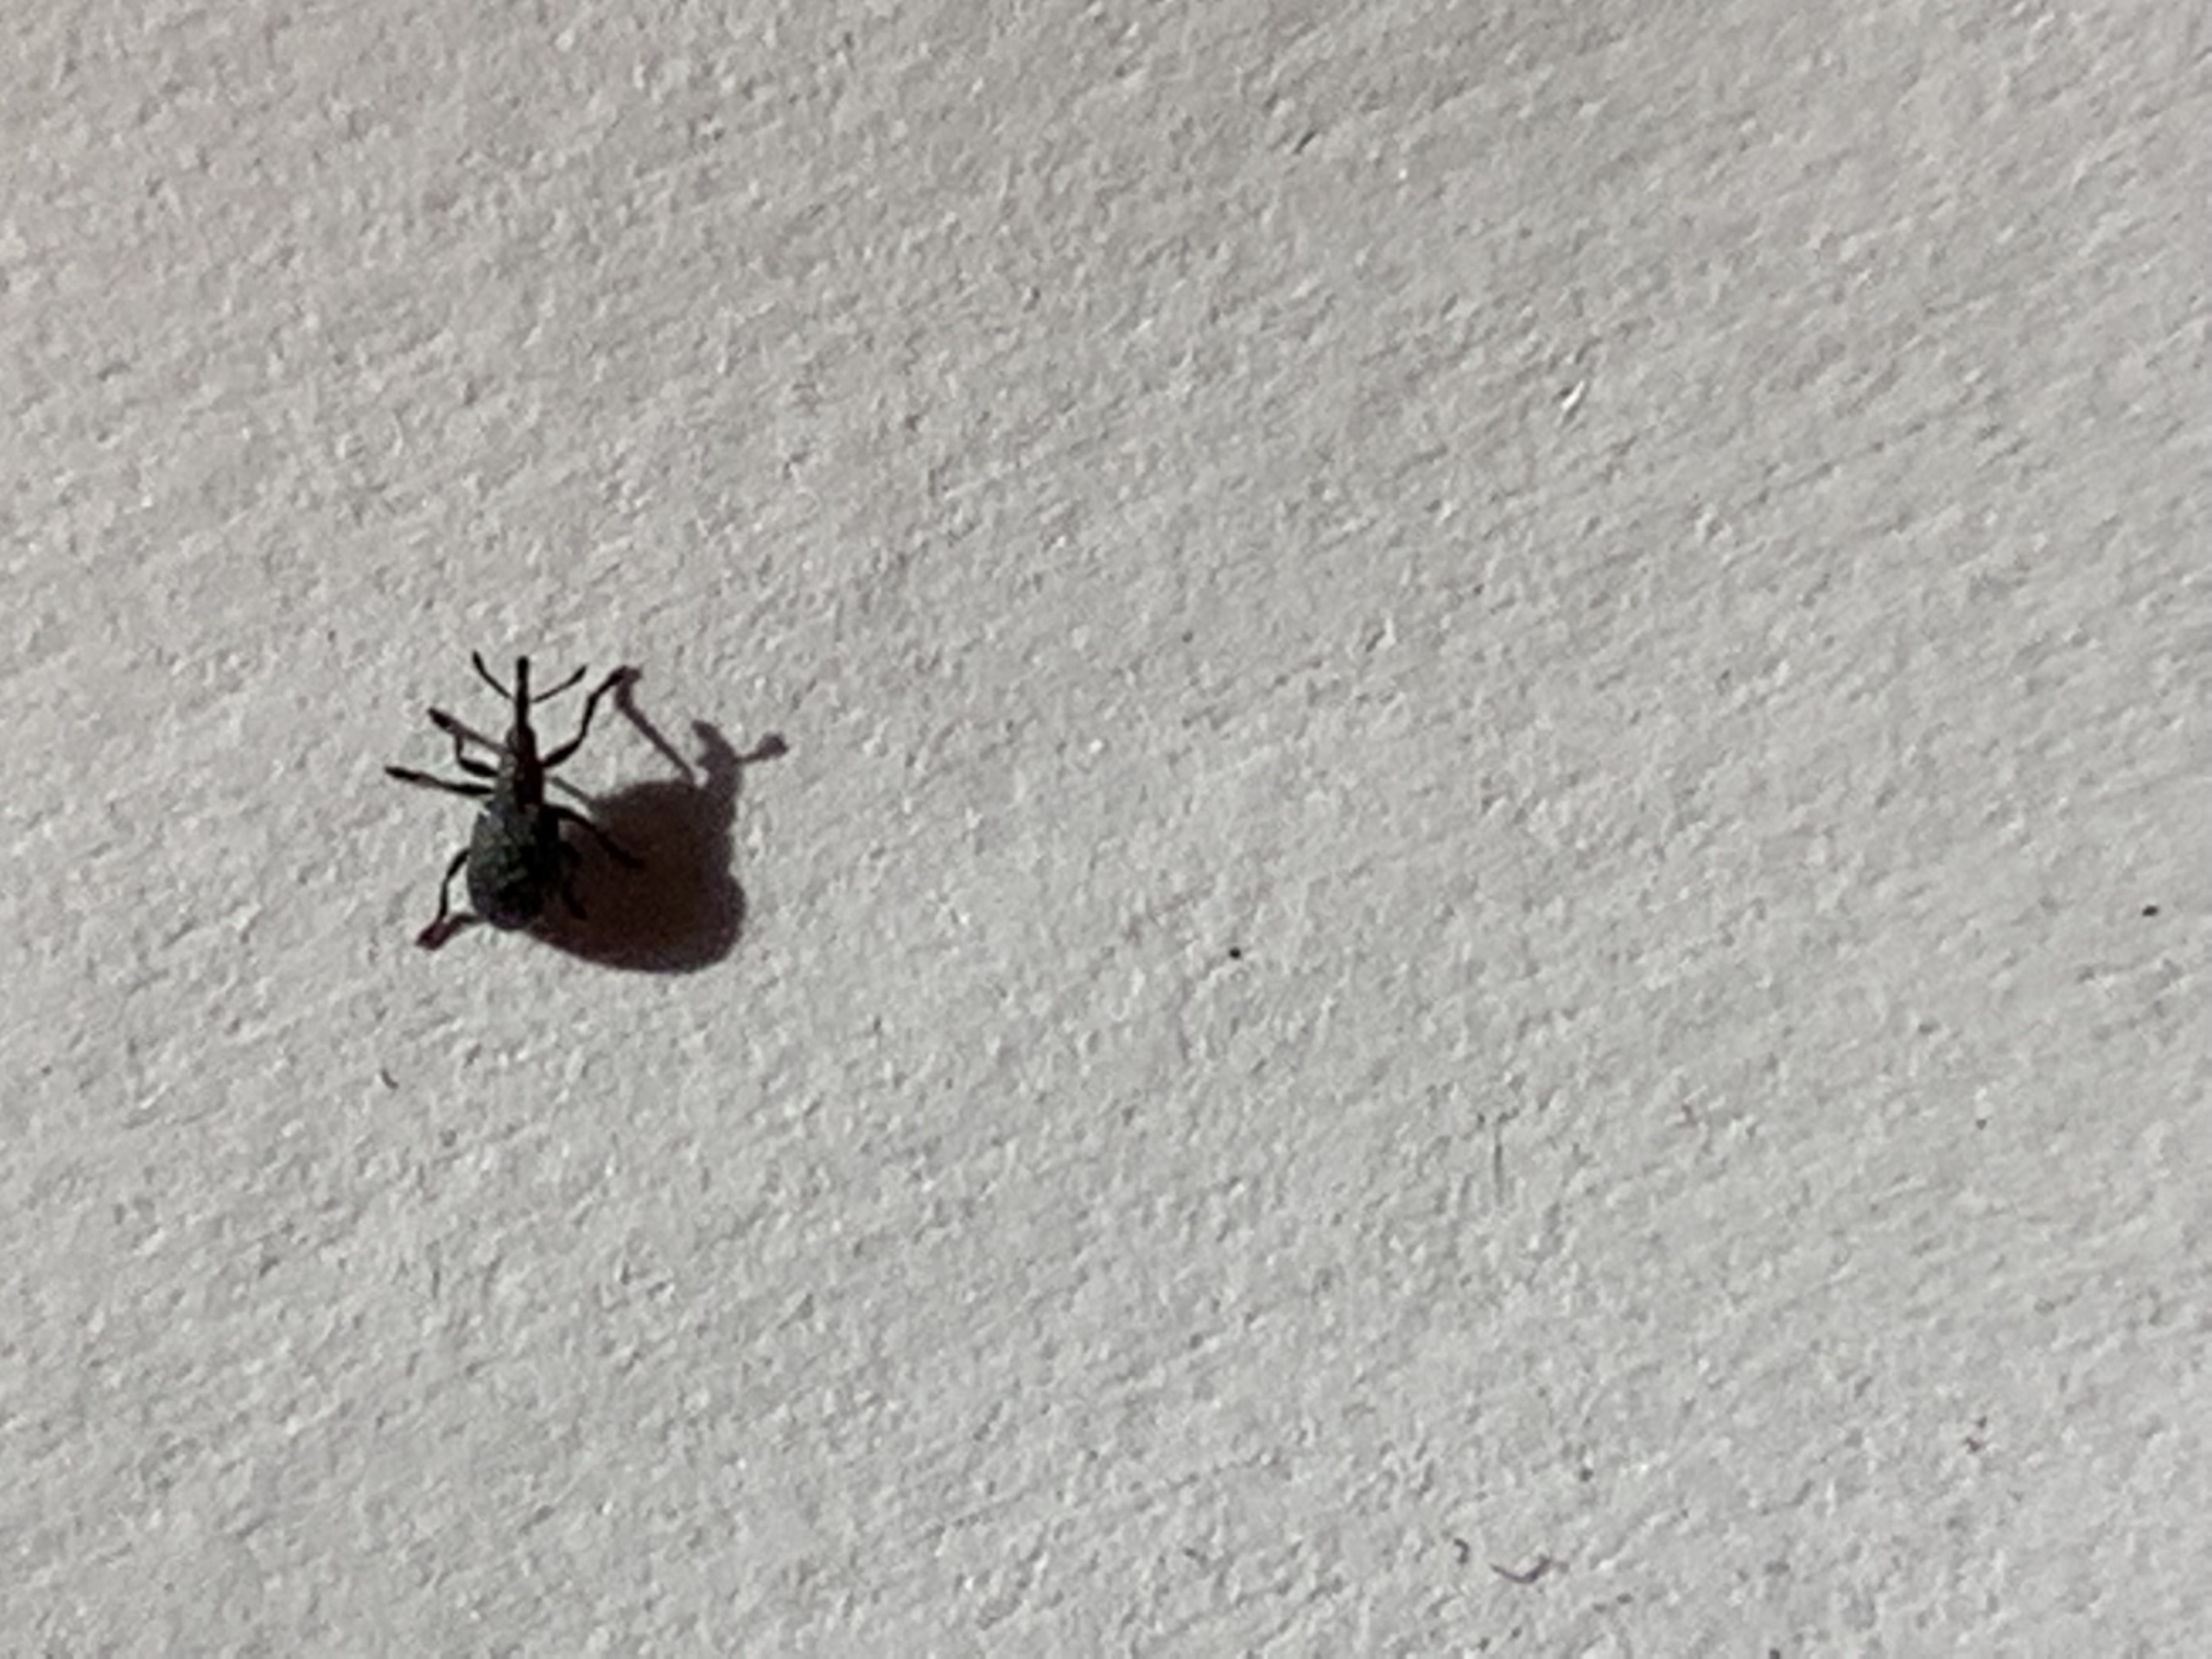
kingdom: Animalia
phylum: Arthropoda
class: Insecta
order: Coleoptera
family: Apionidae
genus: Apion
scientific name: Apion
